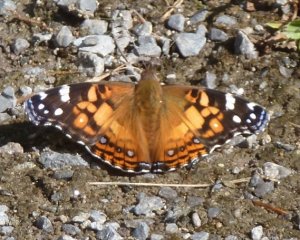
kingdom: Animalia
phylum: Arthropoda
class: Insecta
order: Lepidoptera
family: Nymphalidae
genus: Vanessa
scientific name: Vanessa virginiensis
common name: American Lady
